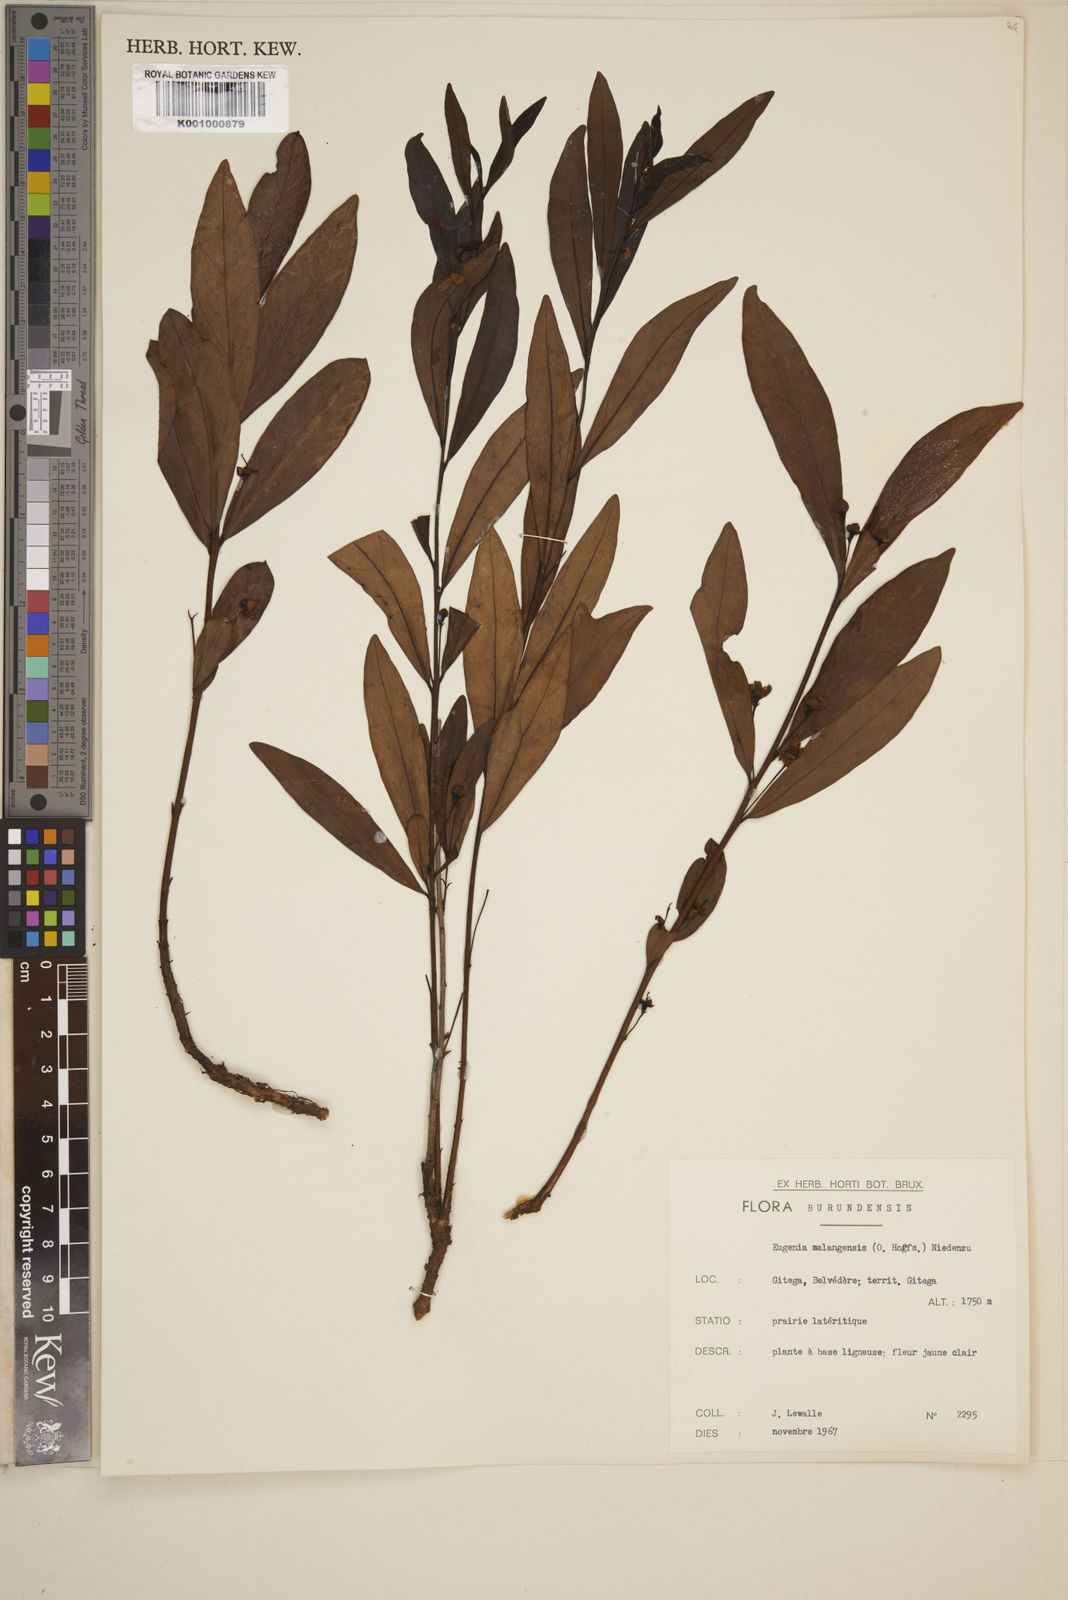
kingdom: Plantae
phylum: Tracheophyta
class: Magnoliopsida
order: Myrtales
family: Myrtaceae
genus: Eugenia
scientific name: Eugenia malangensis
